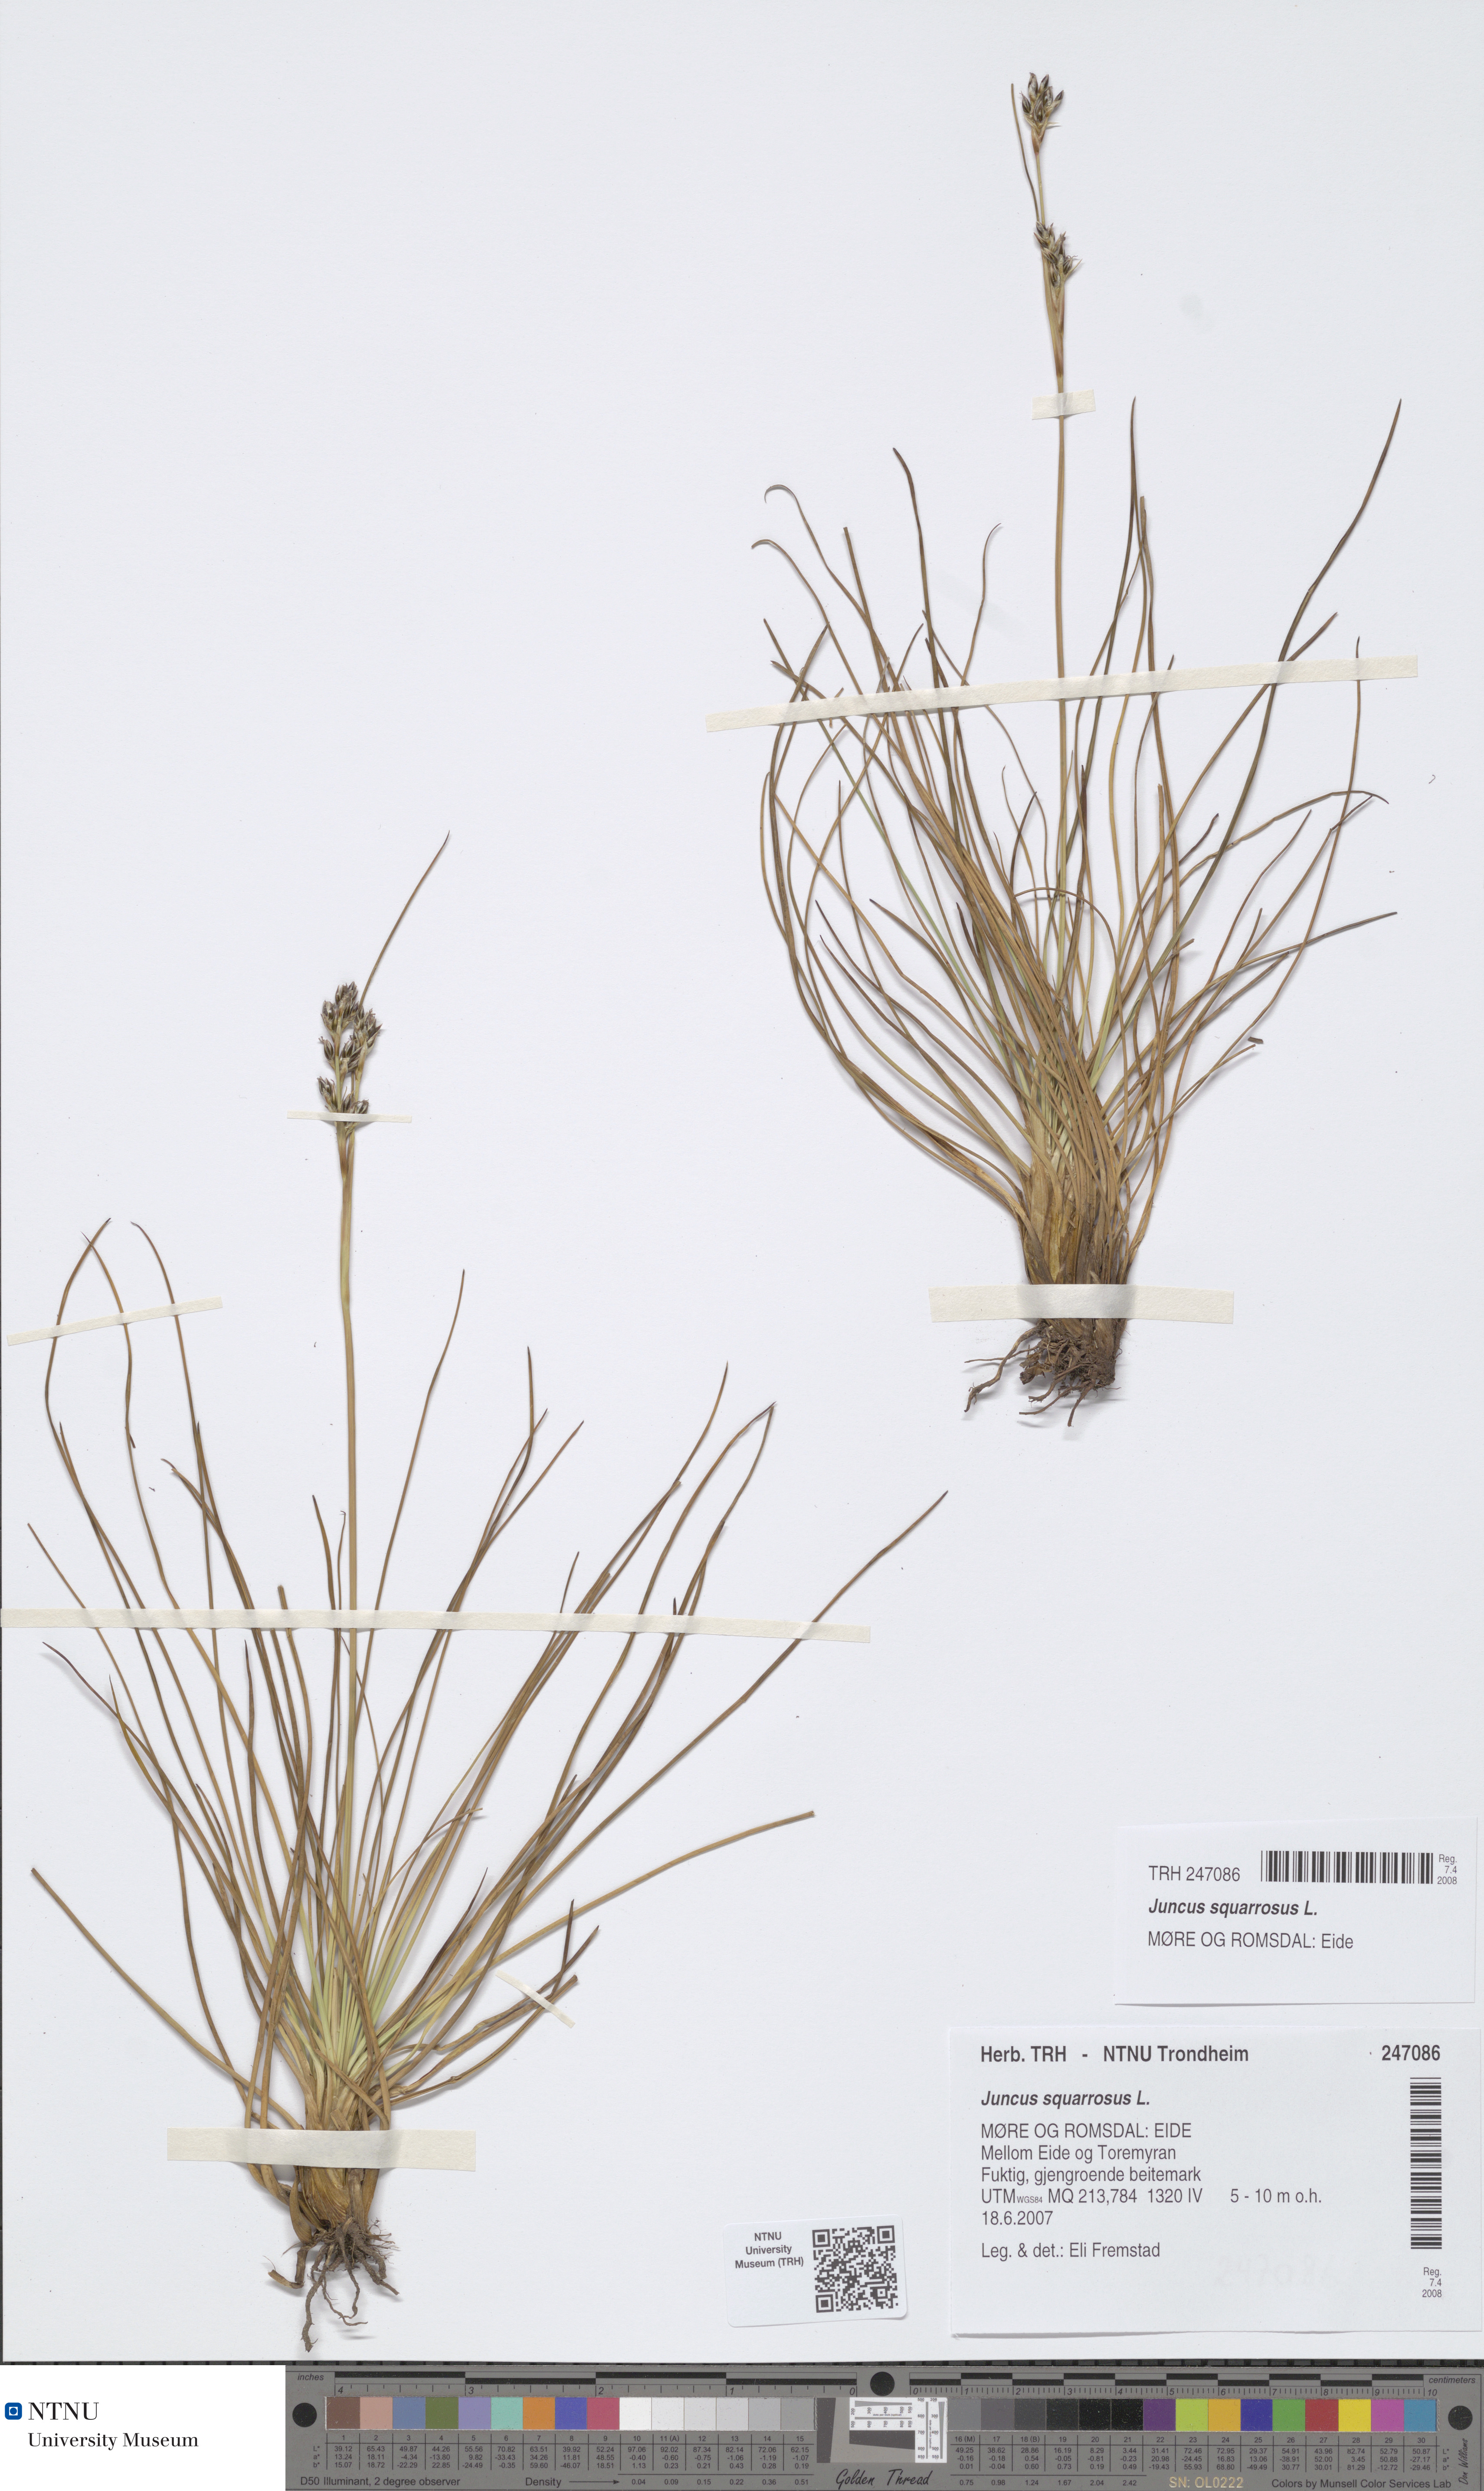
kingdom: Plantae
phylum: Tracheophyta
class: Liliopsida
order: Poales
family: Juncaceae
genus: Juncus
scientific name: Juncus squarrosus
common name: Heath rush
